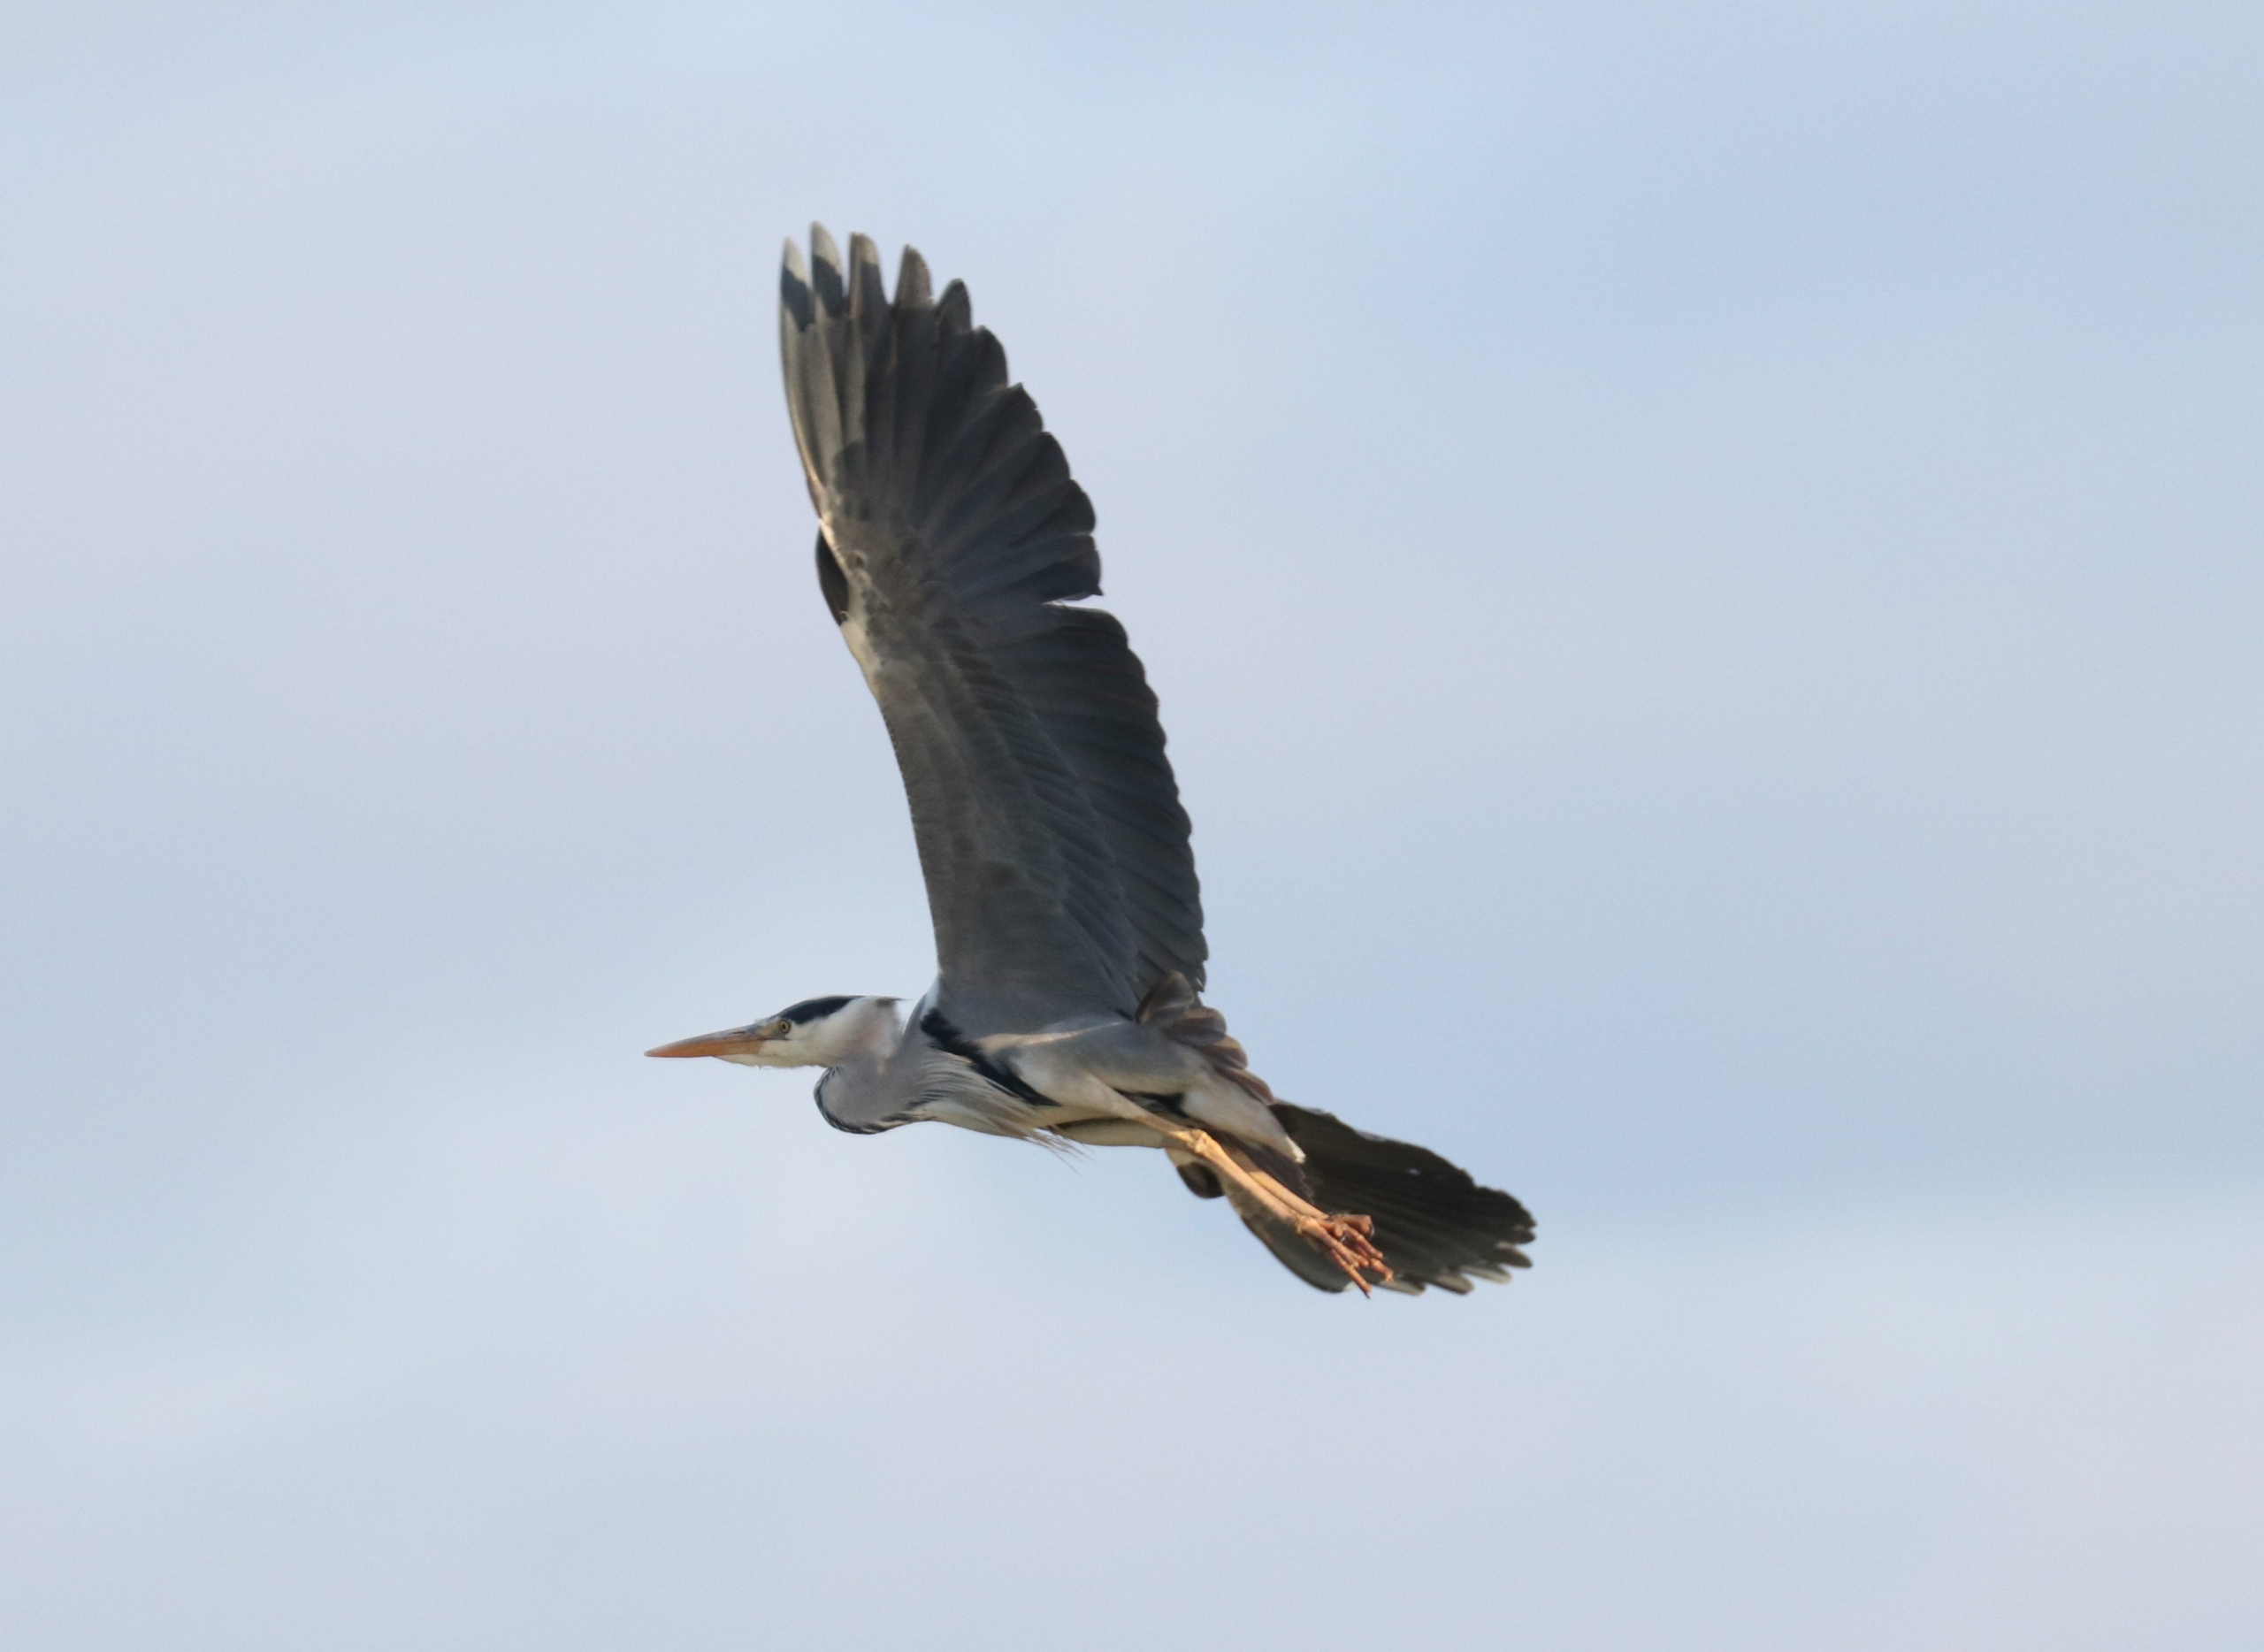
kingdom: Animalia
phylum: Chordata
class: Aves
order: Pelecaniformes
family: Ardeidae
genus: Ardea
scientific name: Ardea cinerea
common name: Fiskehejre
